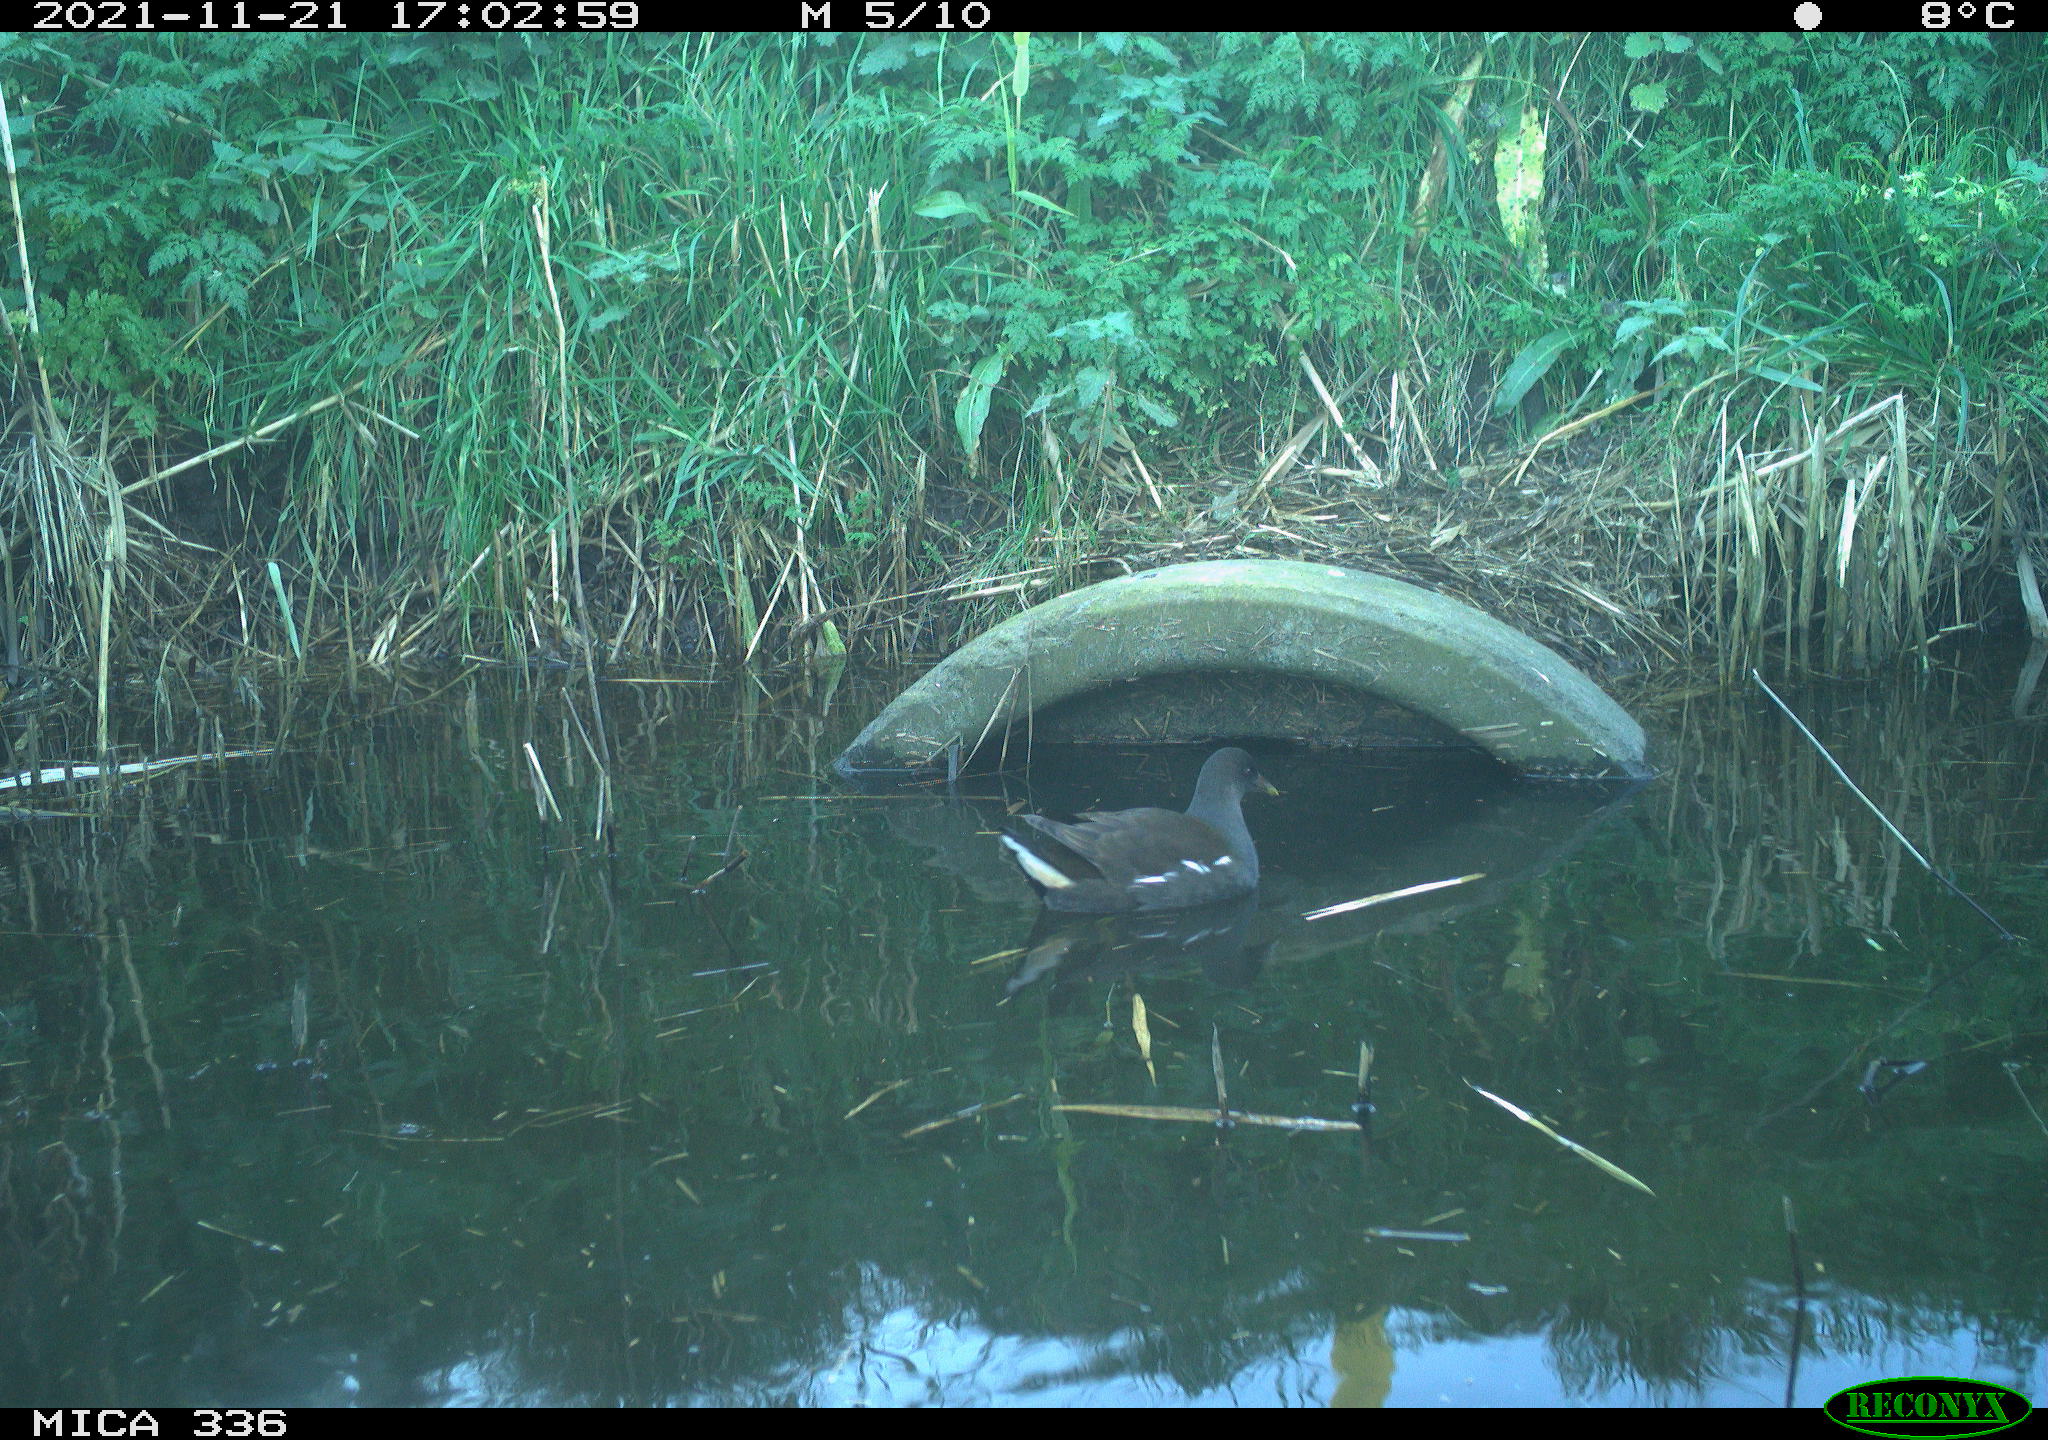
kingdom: Animalia
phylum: Chordata
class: Aves
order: Gruiformes
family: Rallidae
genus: Gallinula
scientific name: Gallinula chloropus
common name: Common moorhen
